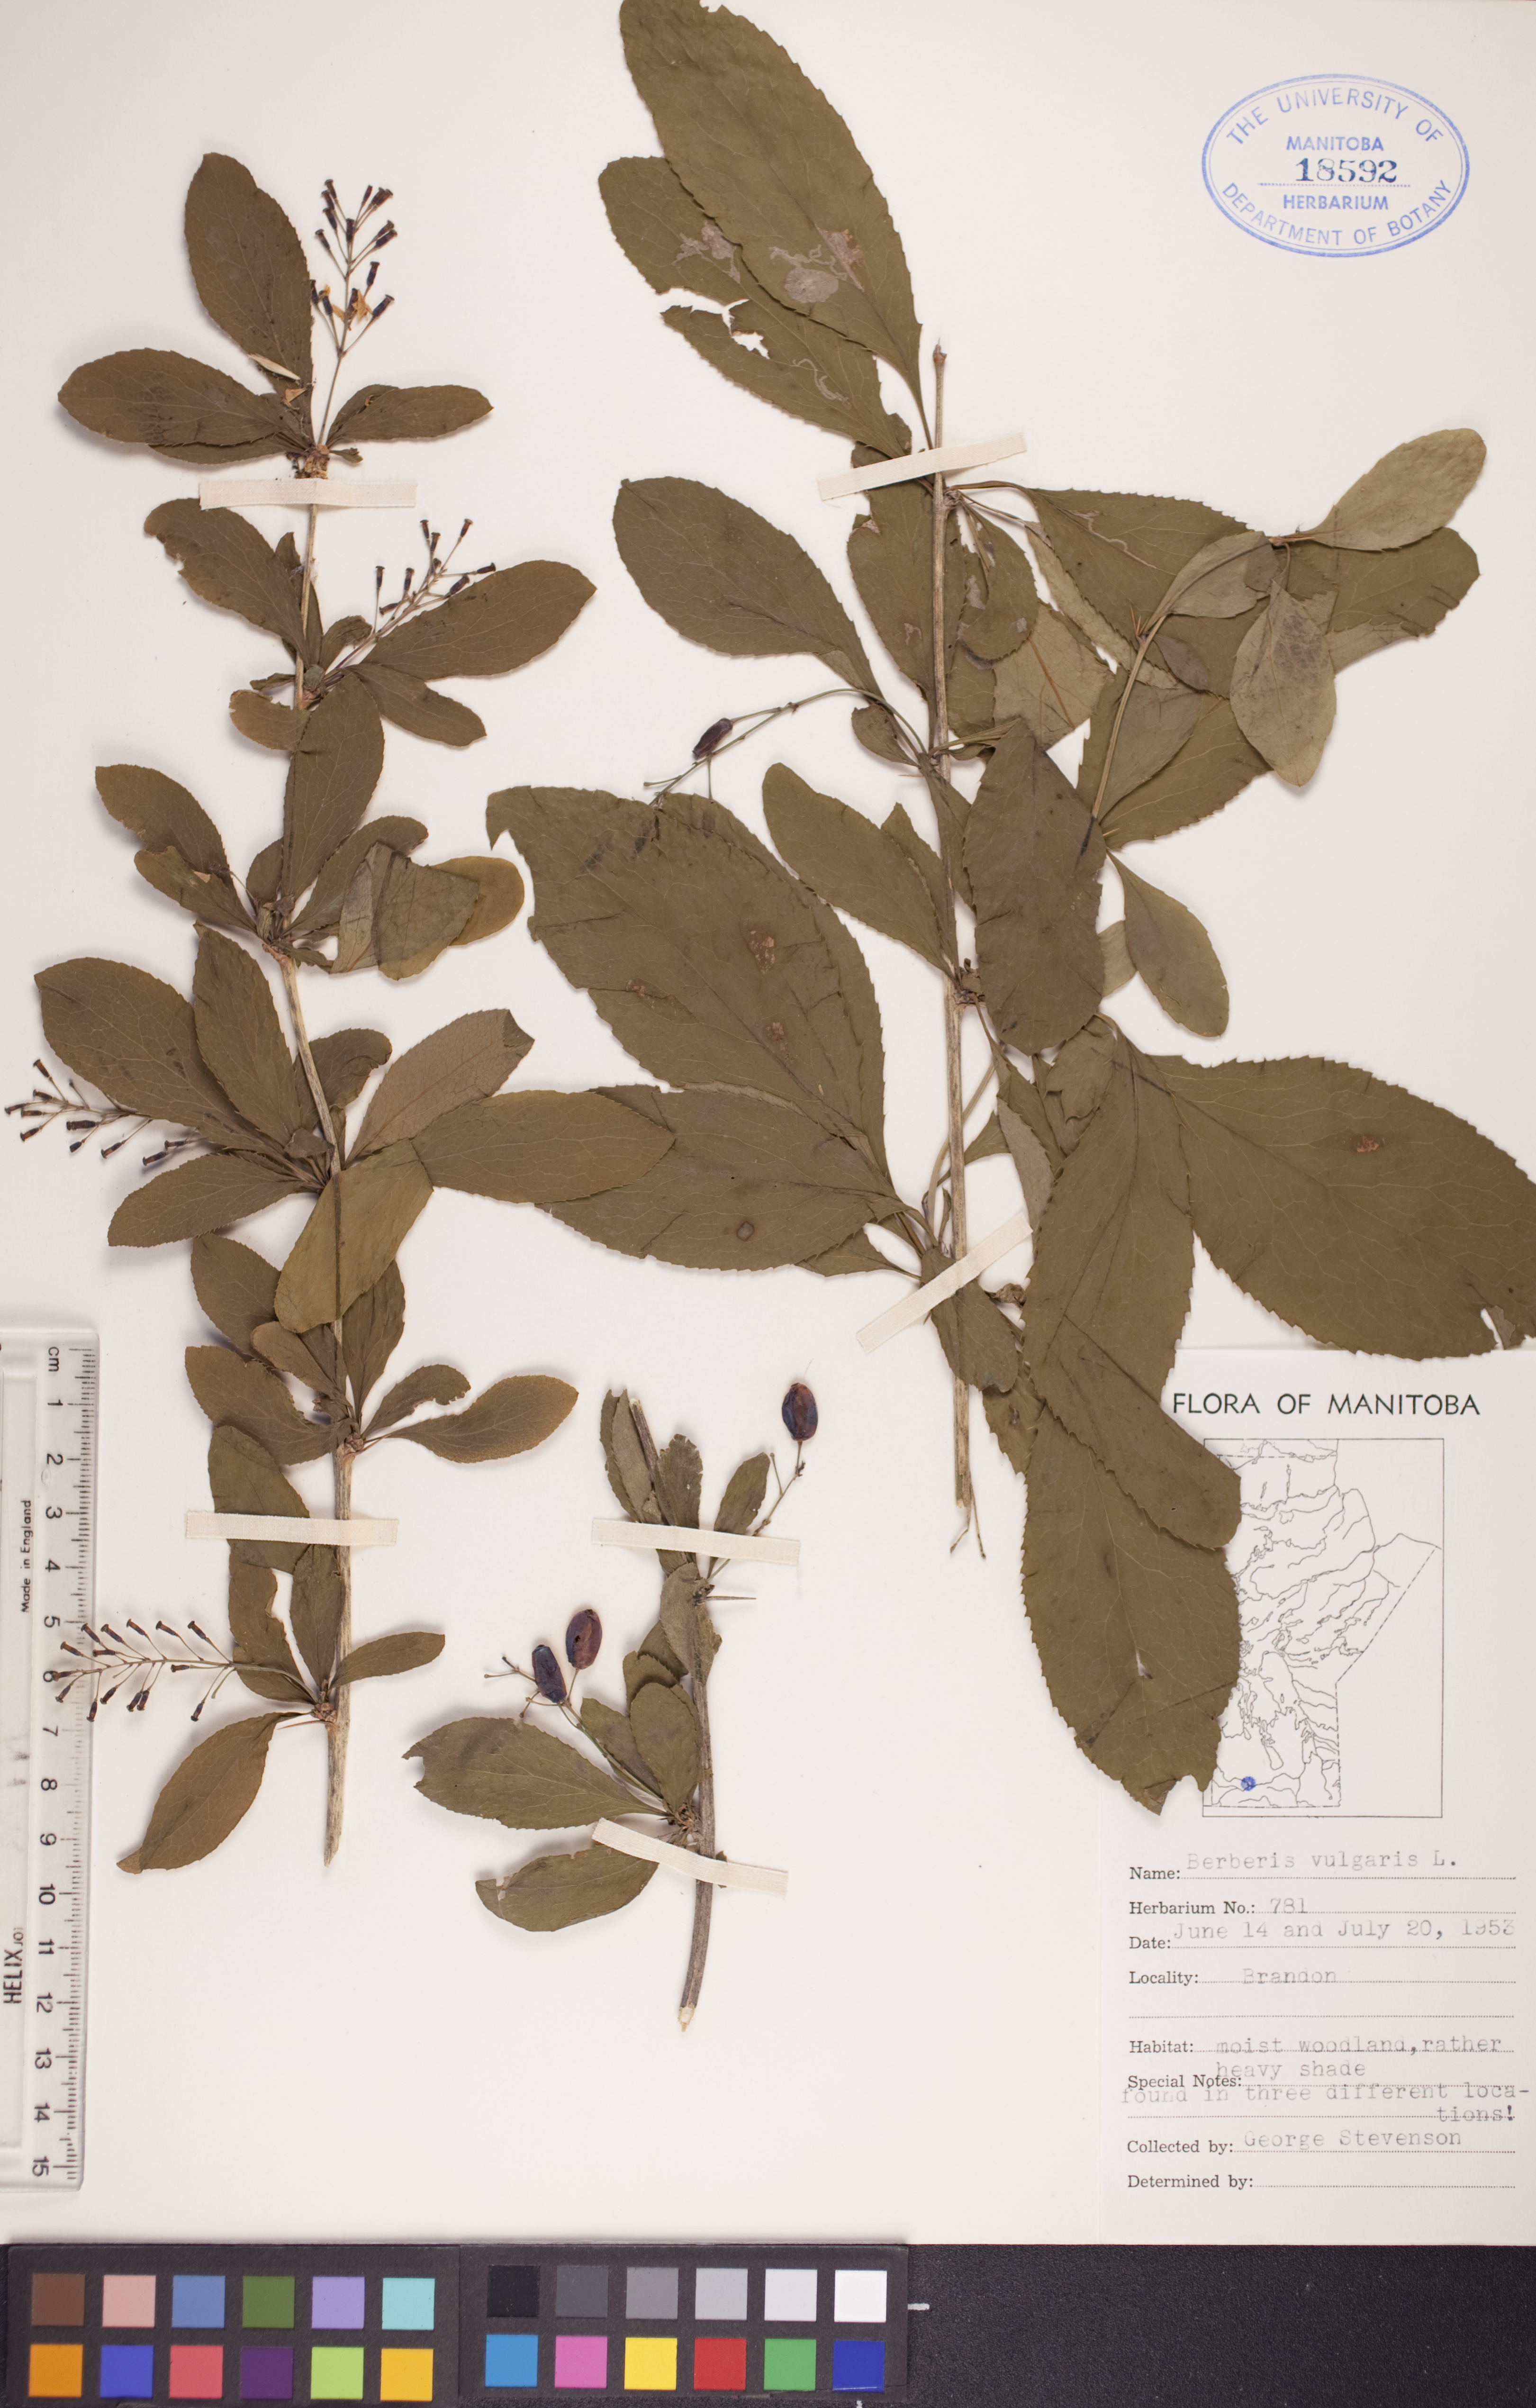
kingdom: Plantae
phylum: Tracheophyta
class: Magnoliopsida
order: Ranunculales
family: Berberidaceae
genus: Berberis
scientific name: Berberis vulgaris
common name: Barberry
